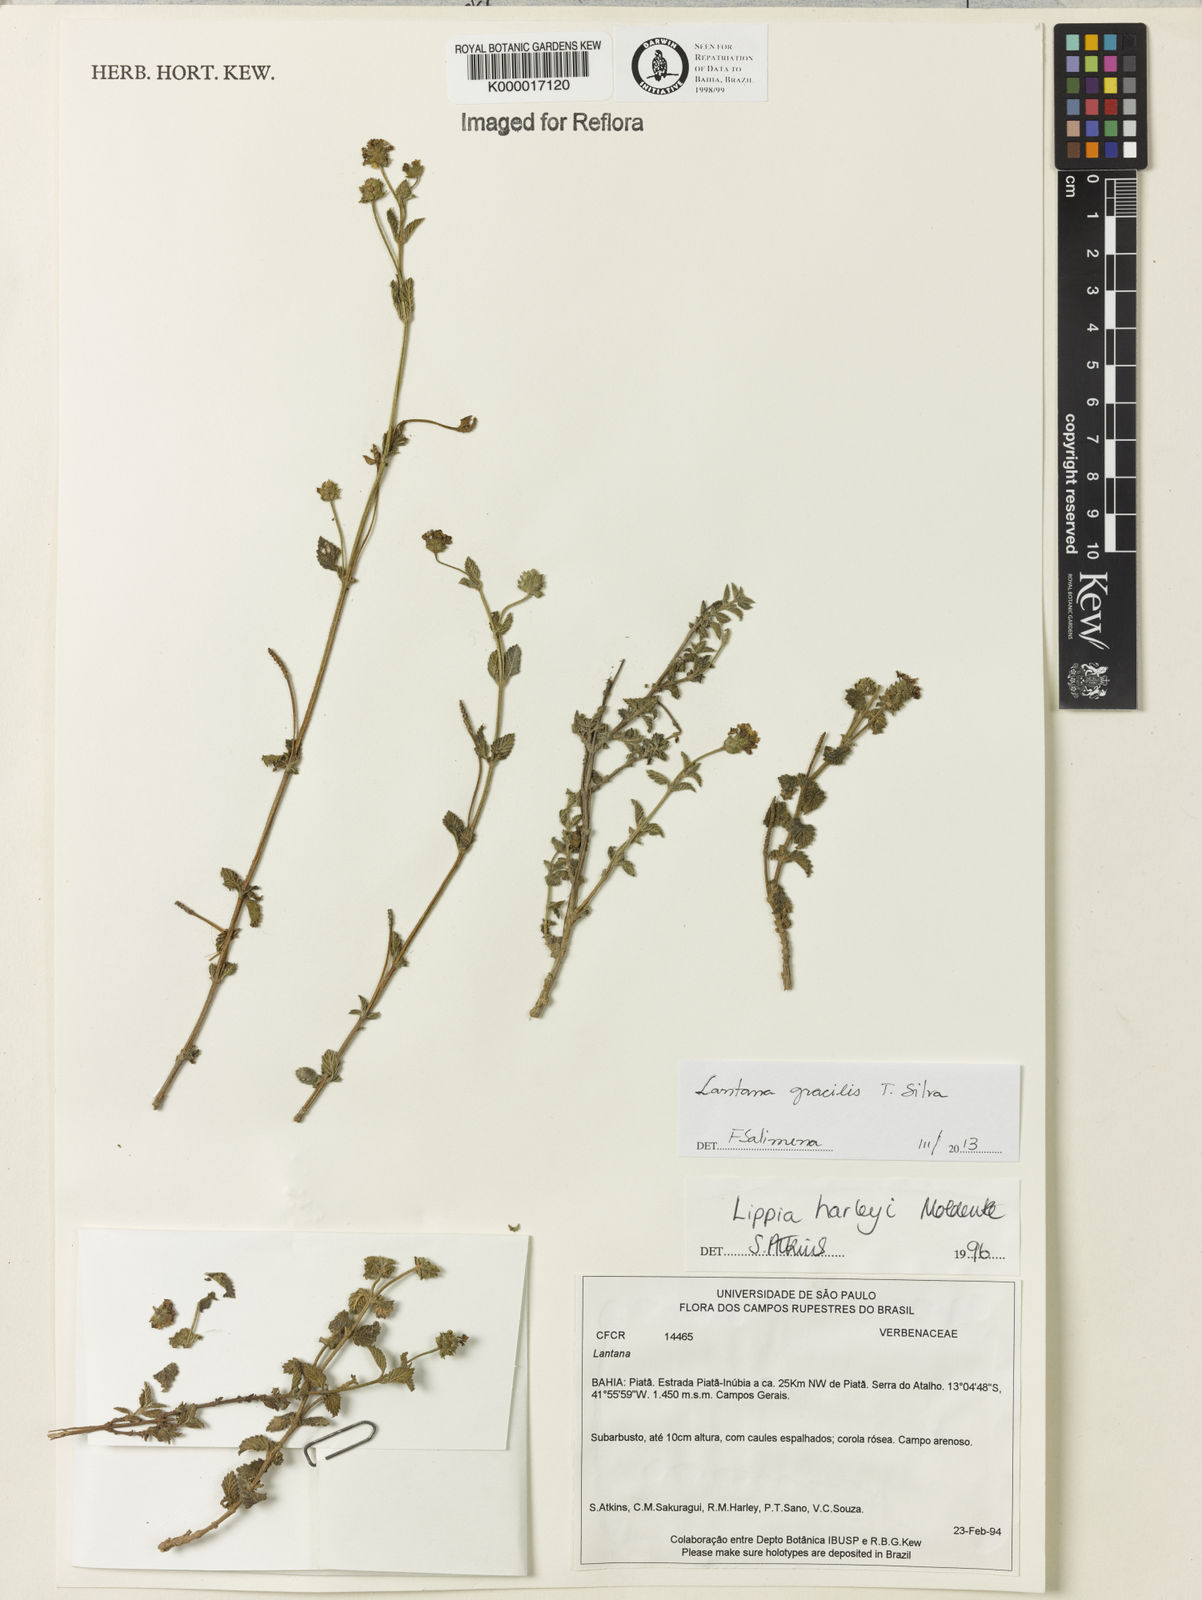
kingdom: Plantae
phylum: Tracheophyta
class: Magnoliopsida
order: Lamiales
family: Verbenaceae
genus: Lippia
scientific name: Lippia harleyi
